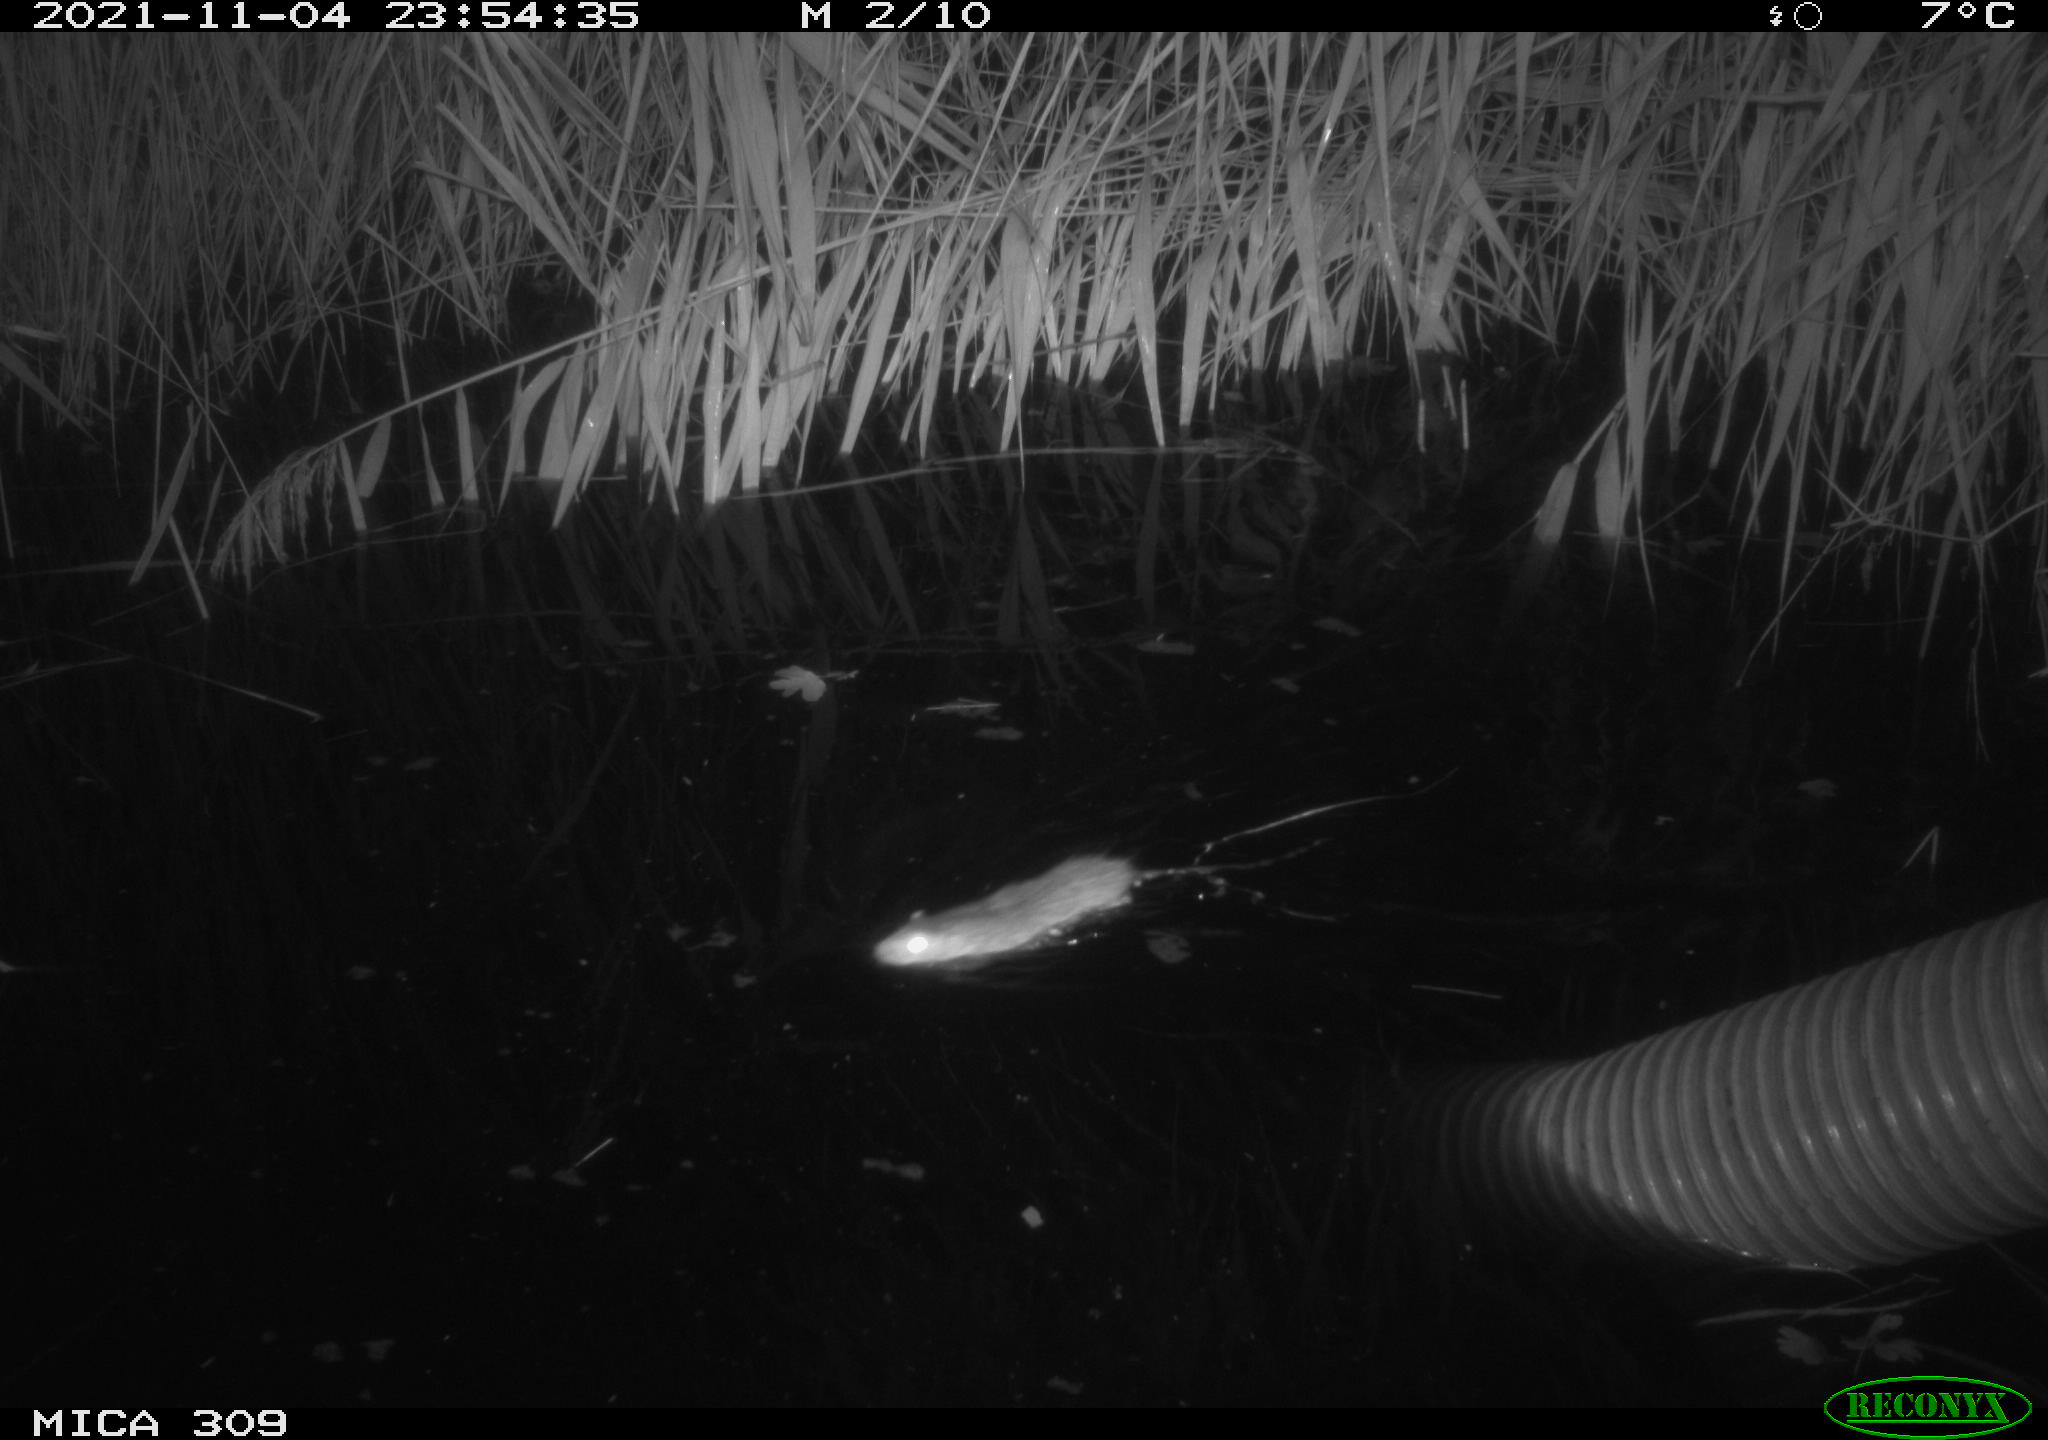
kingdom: Animalia
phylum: Chordata
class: Mammalia
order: Rodentia
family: Muridae
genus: Rattus
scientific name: Rattus norvegicus
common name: Brown rat
